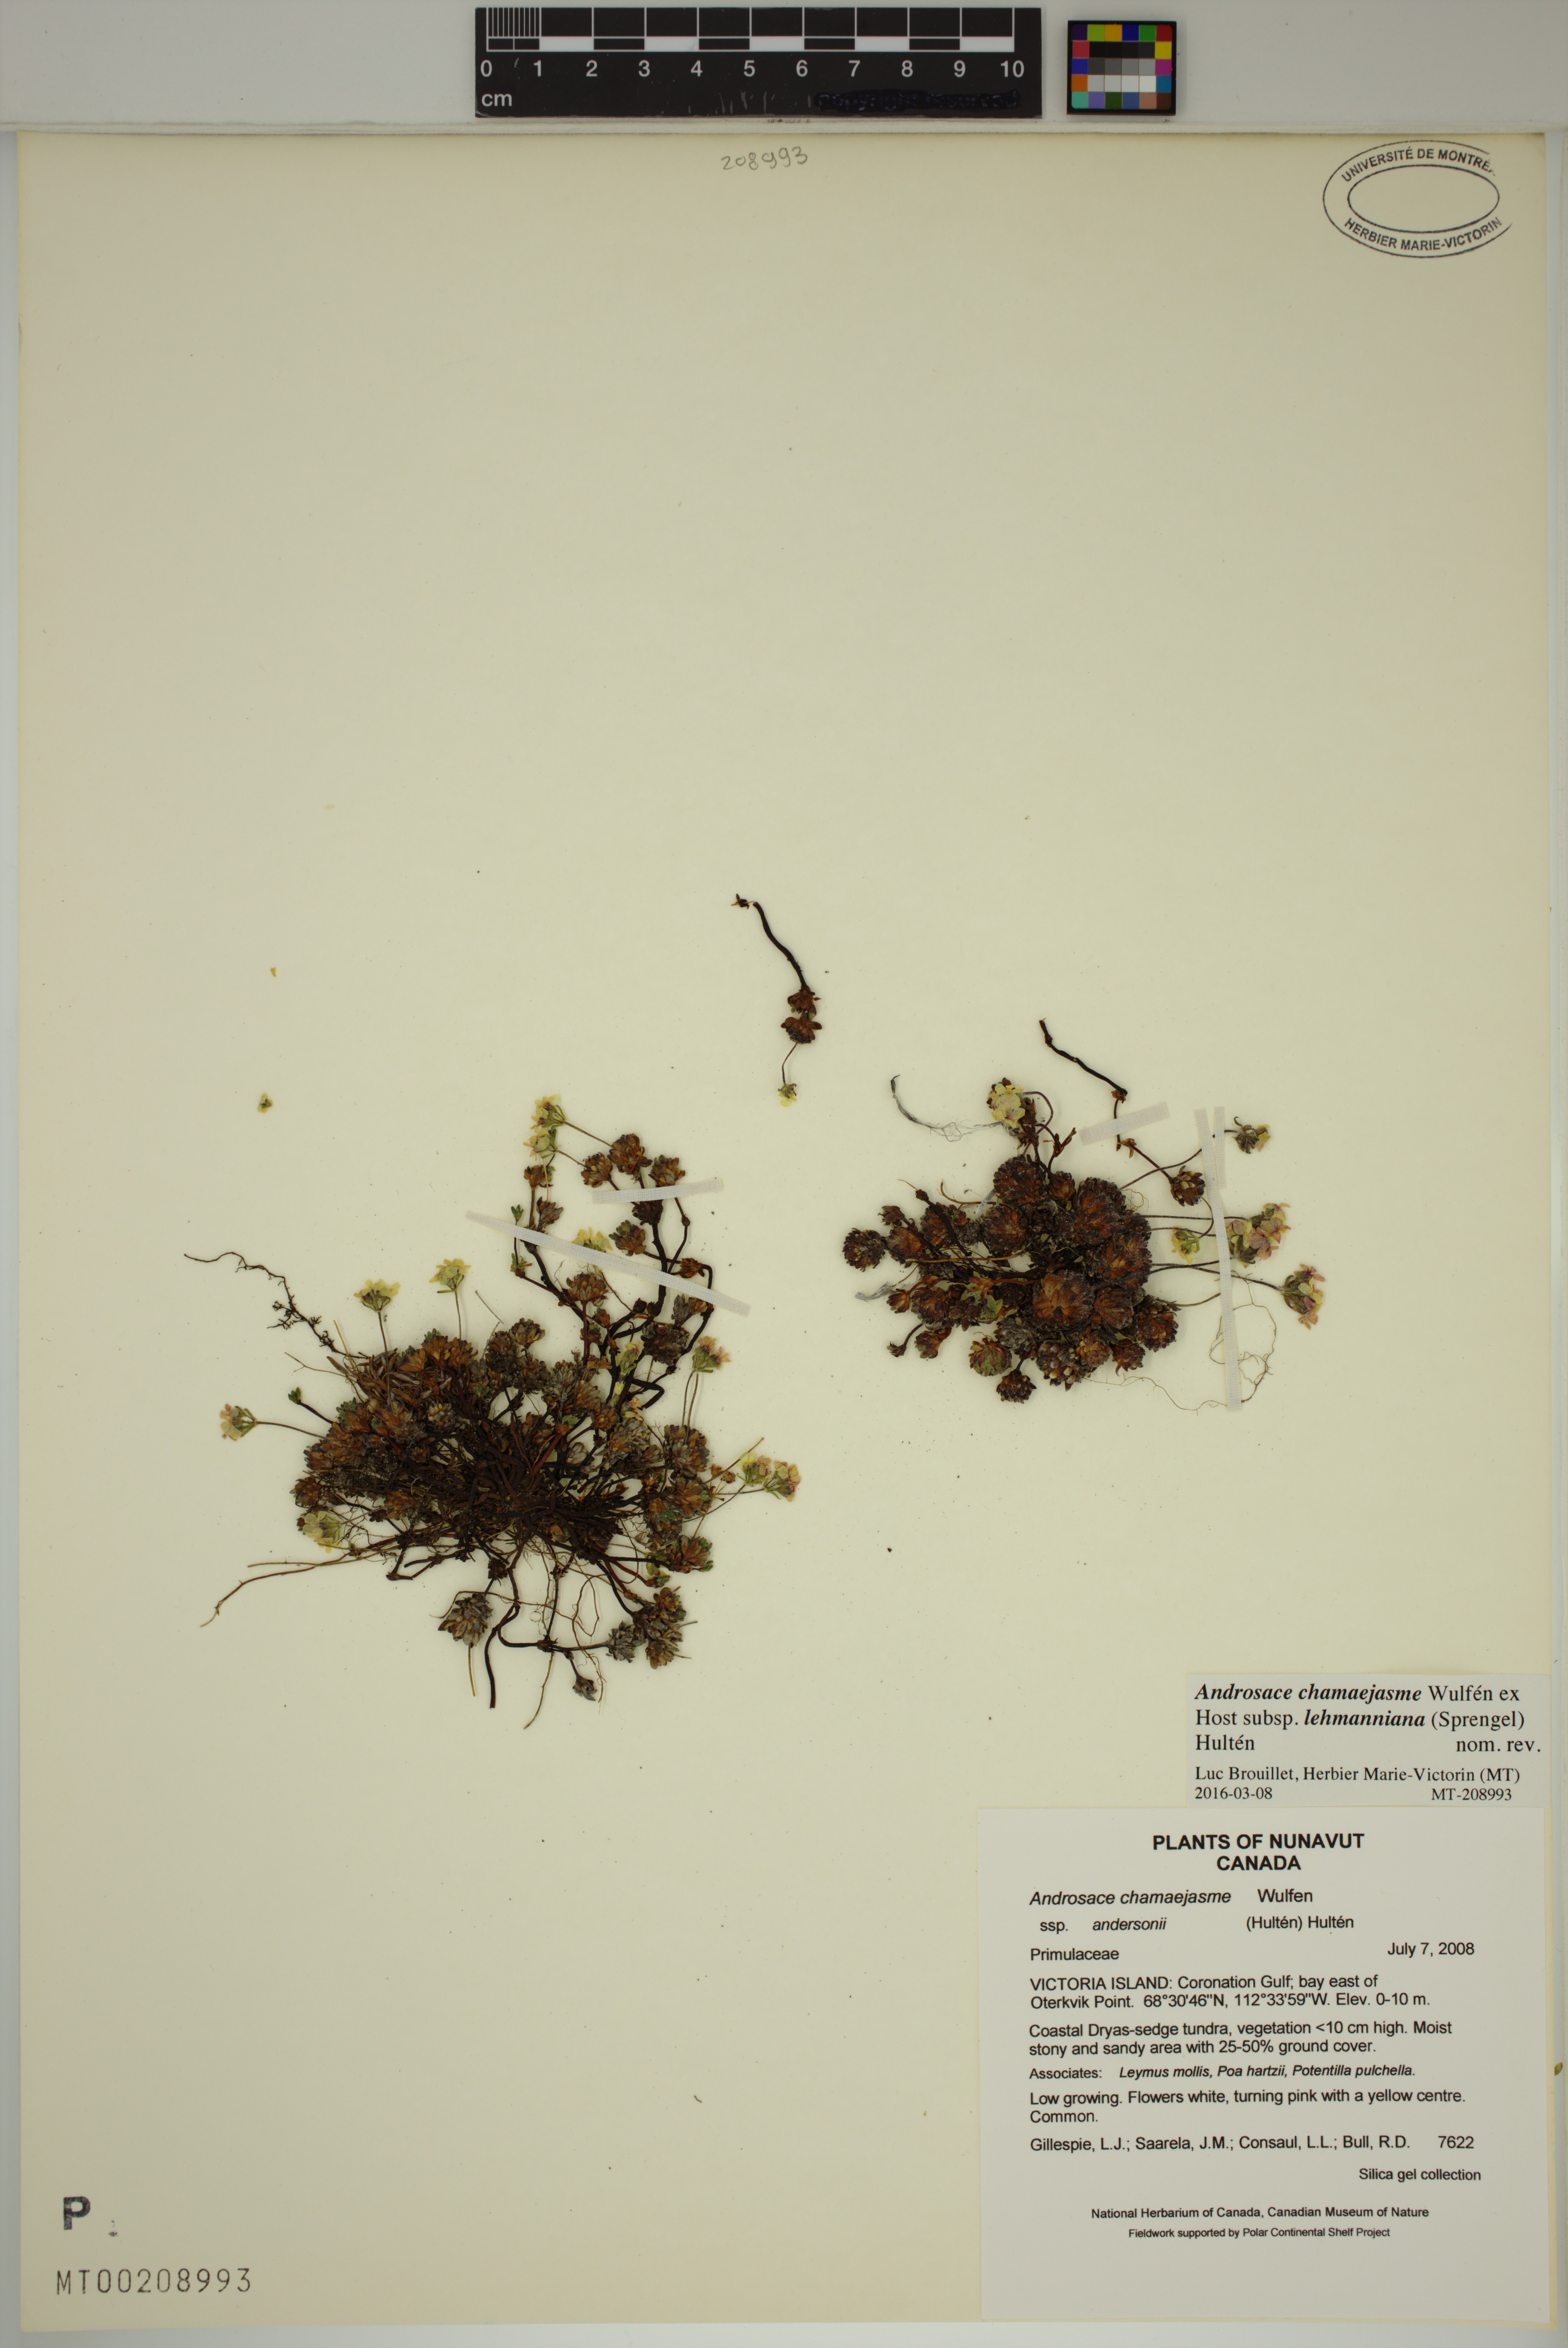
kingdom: Plantae
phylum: Tracheophyta
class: Magnoliopsida
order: Ericales
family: Primulaceae
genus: Androsace
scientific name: Androsace chamaejasme
